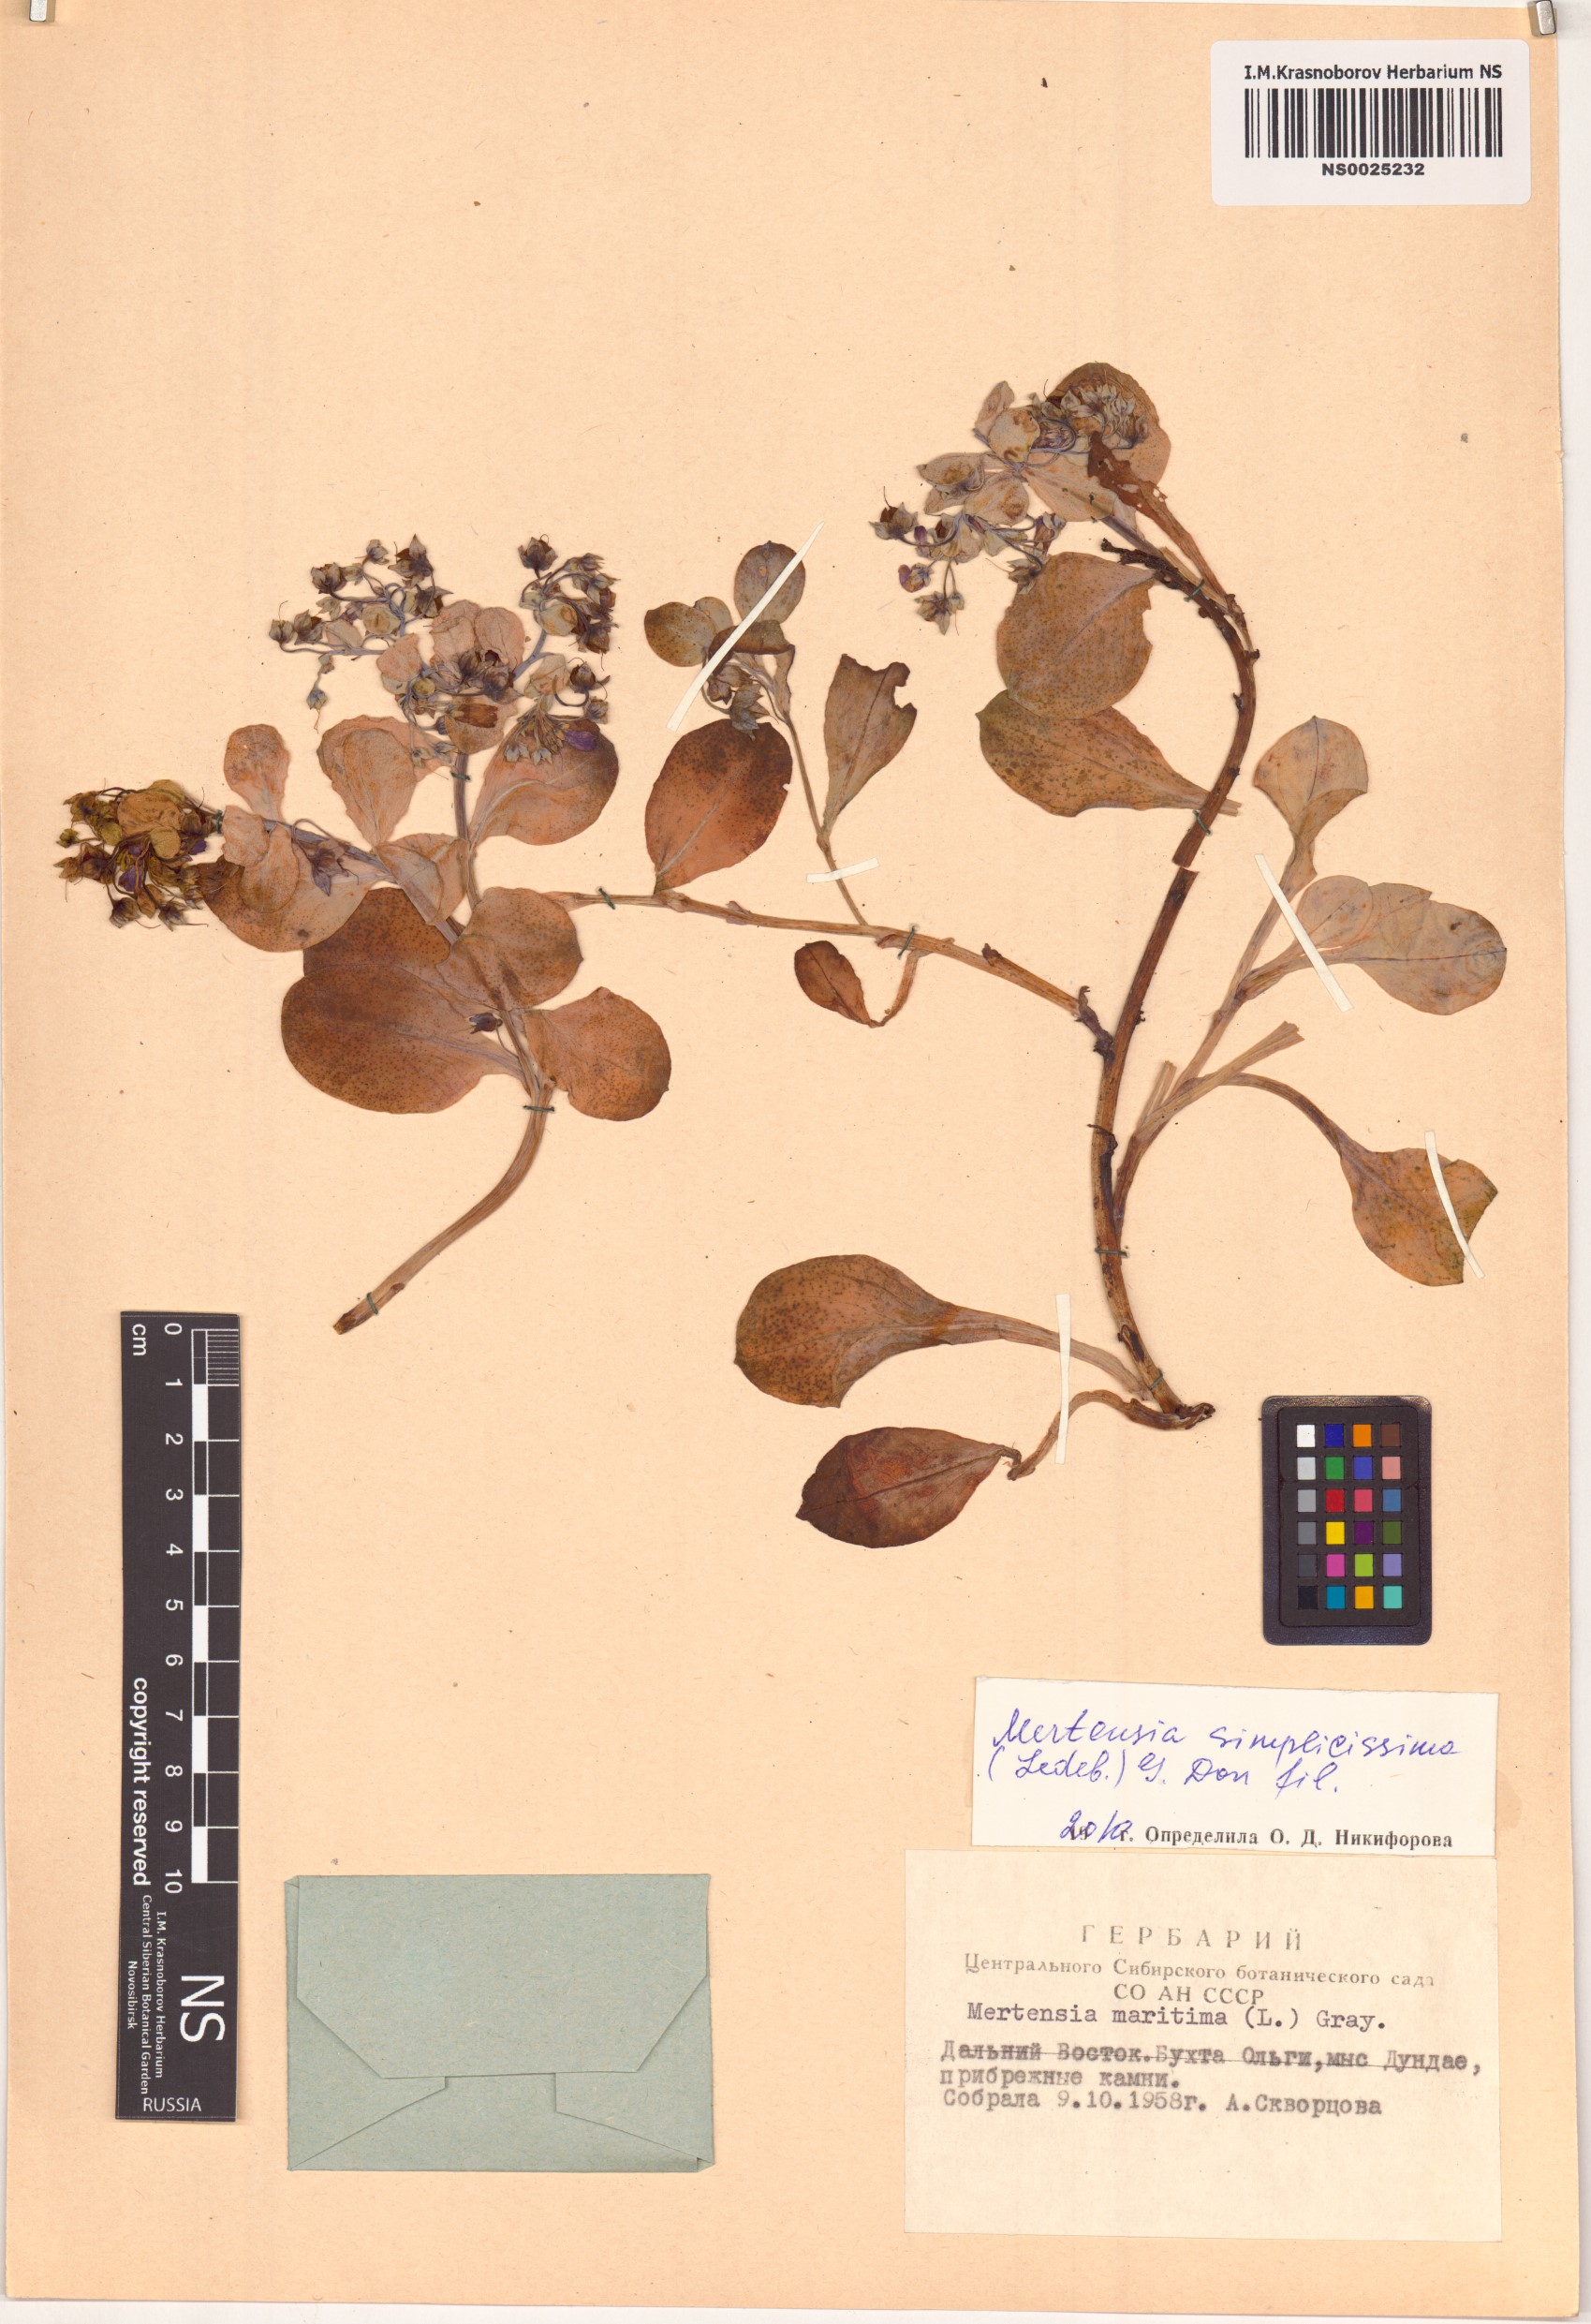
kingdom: Plantae
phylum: Tracheophyta
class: Magnoliopsida
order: Boraginales
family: Boraginaceae
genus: Mertensia
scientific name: Mertensia simplicissima
